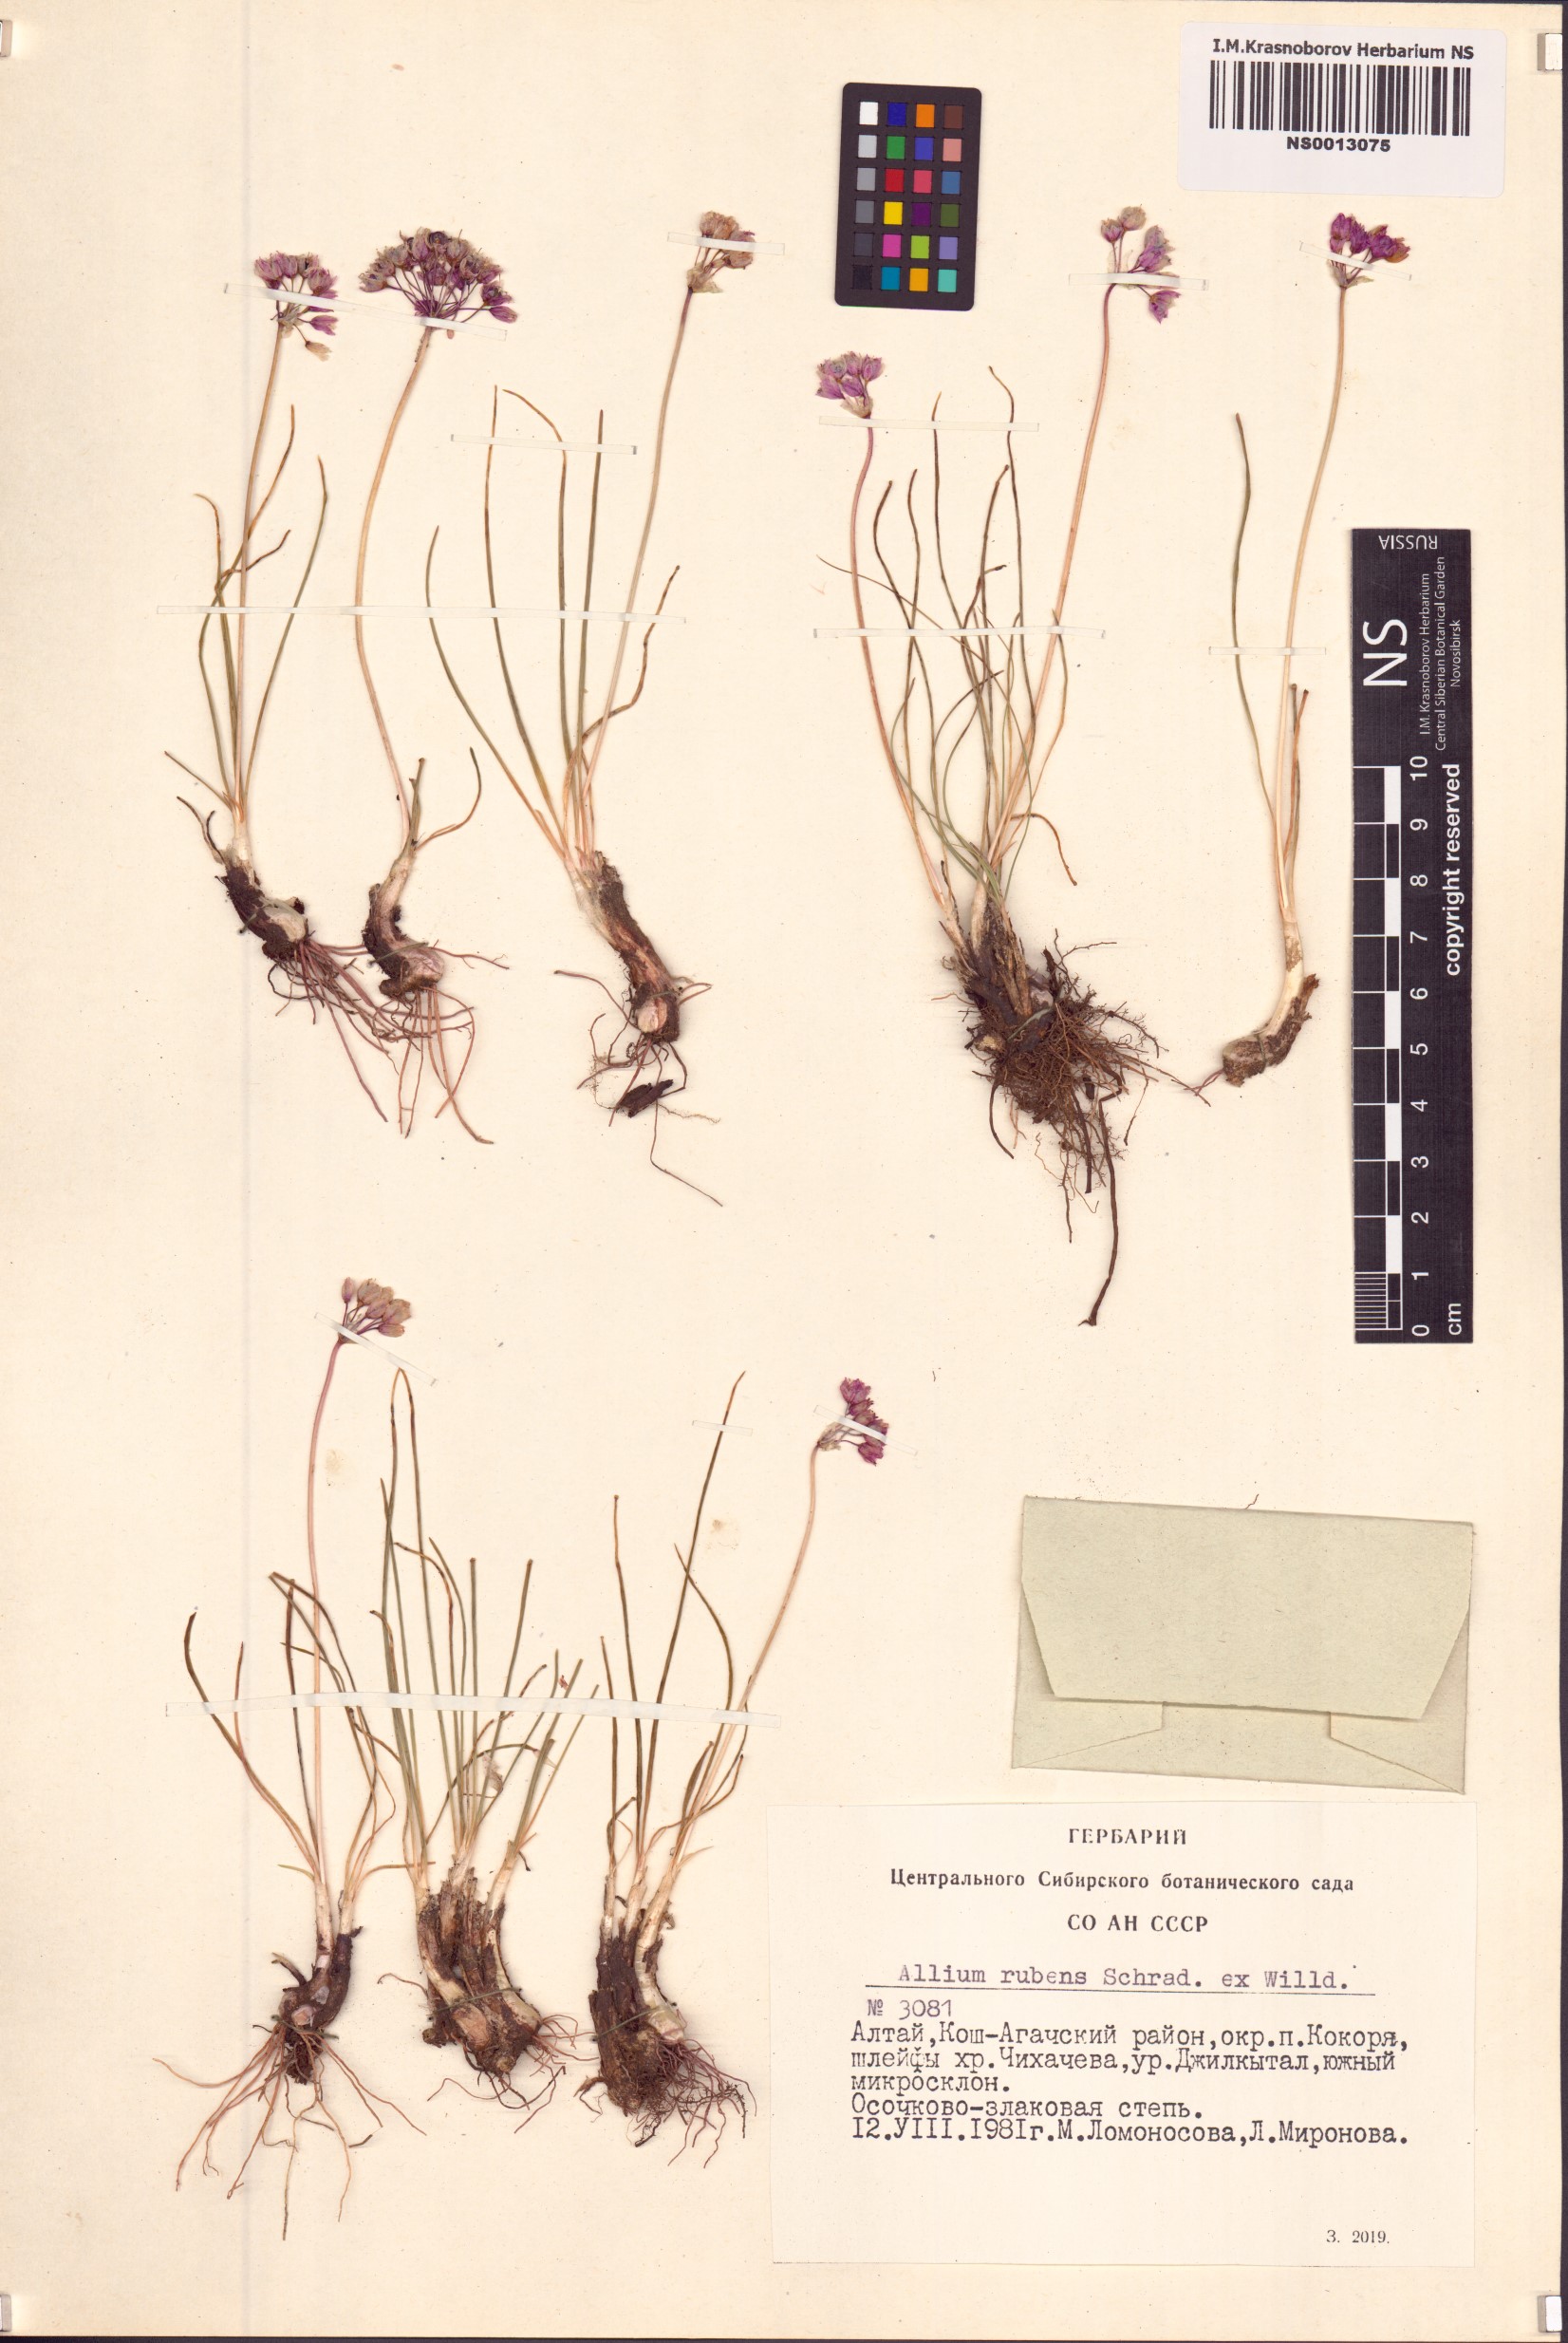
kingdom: Plantae
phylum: Tracheophyta
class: Liliopsida
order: Asparagales
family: Amaryllidaceae
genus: Allium
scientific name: Allium rubens
